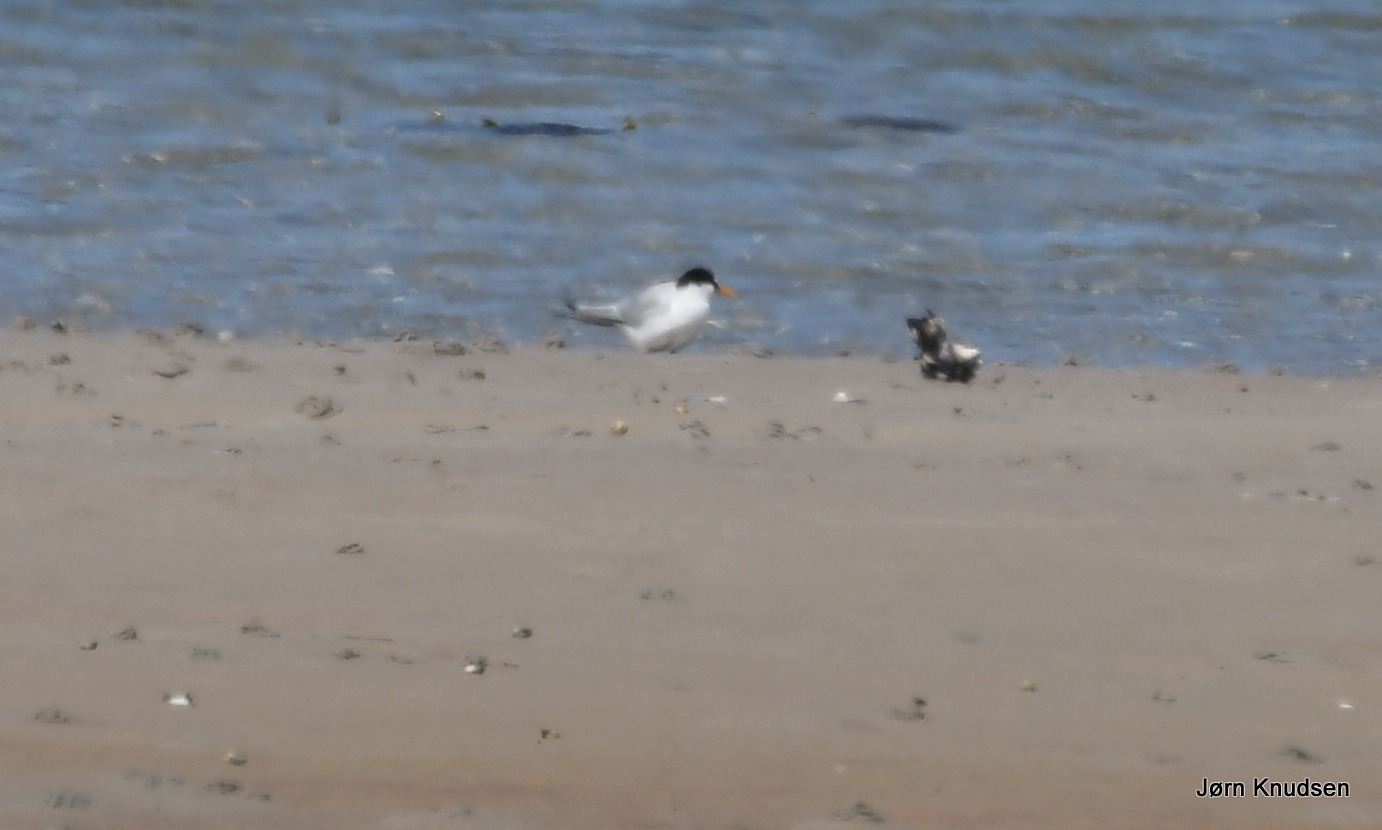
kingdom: Animalia
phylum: Chordata
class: Aves
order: Charadriiformes
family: Laridae
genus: Sternula
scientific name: Sternula albifrons
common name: Dværgterne
